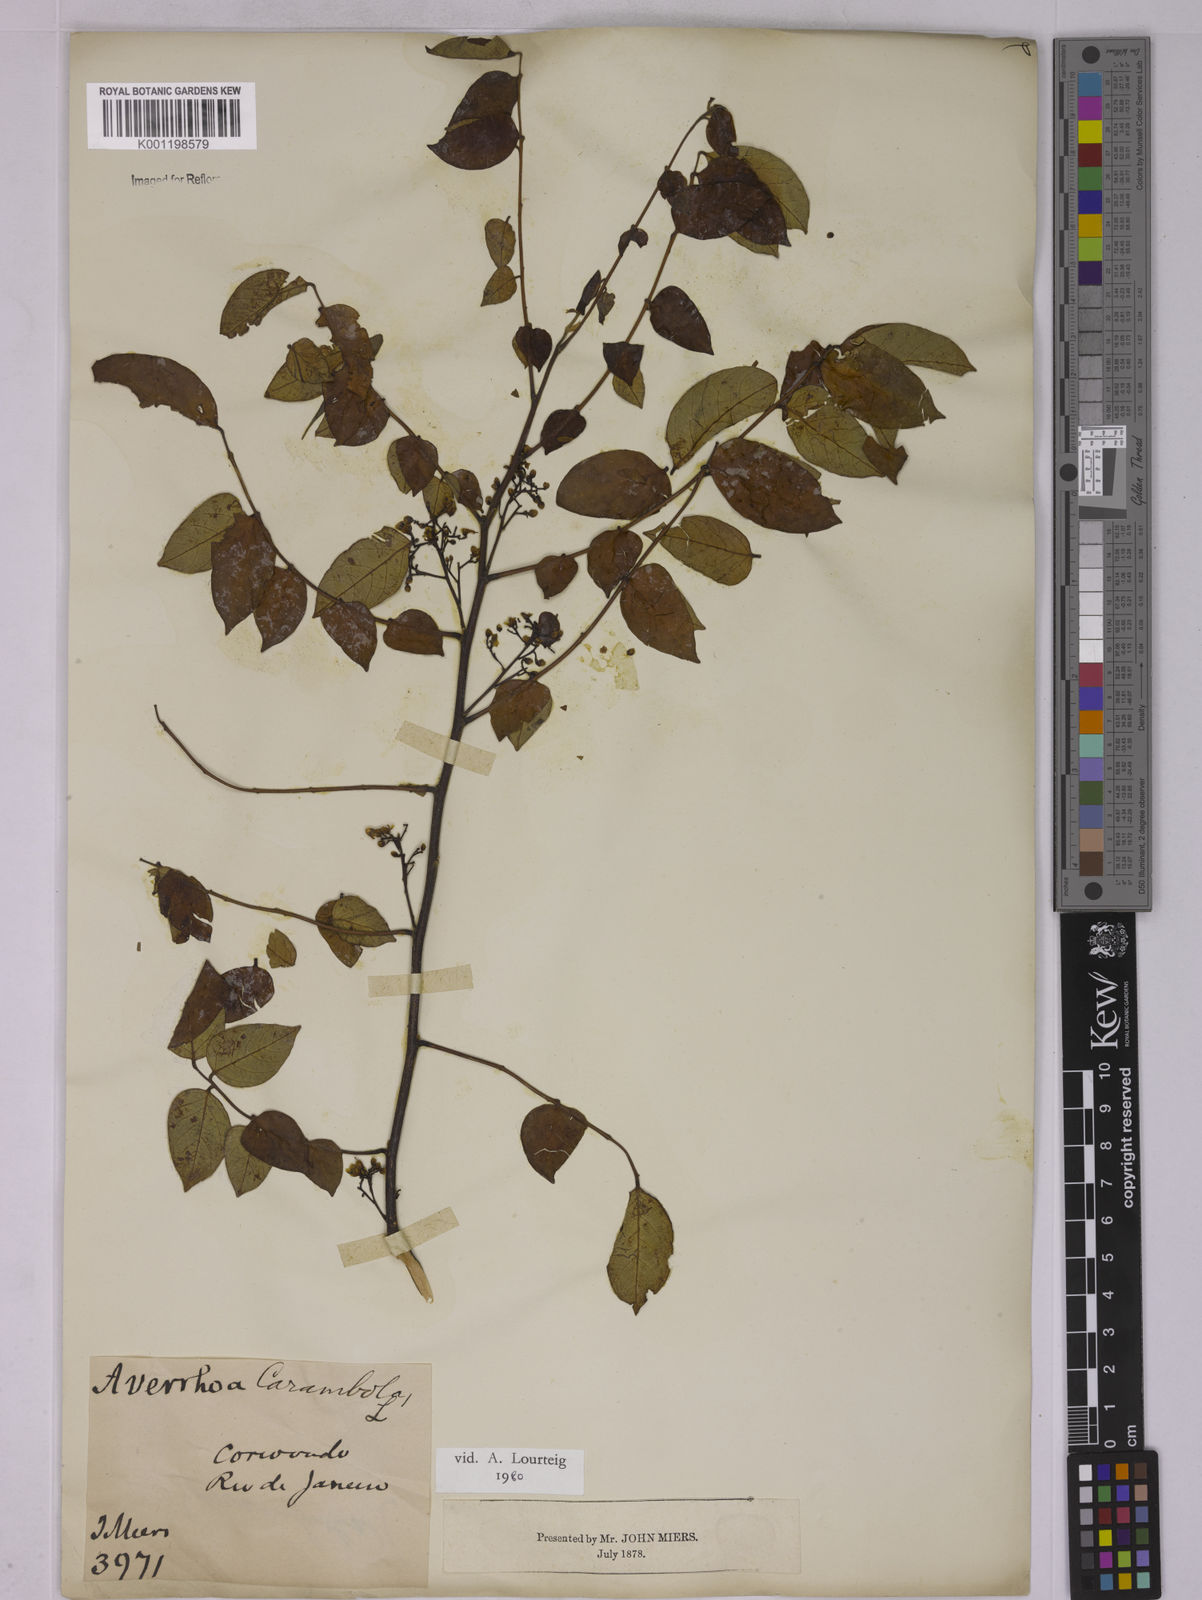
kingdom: Plantae
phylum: Tracheophyta
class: Magnoliopsida
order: Oxalidales
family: Oxalidaceae
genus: Averrhoa
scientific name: Averrhoa carambola
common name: Blimbing
